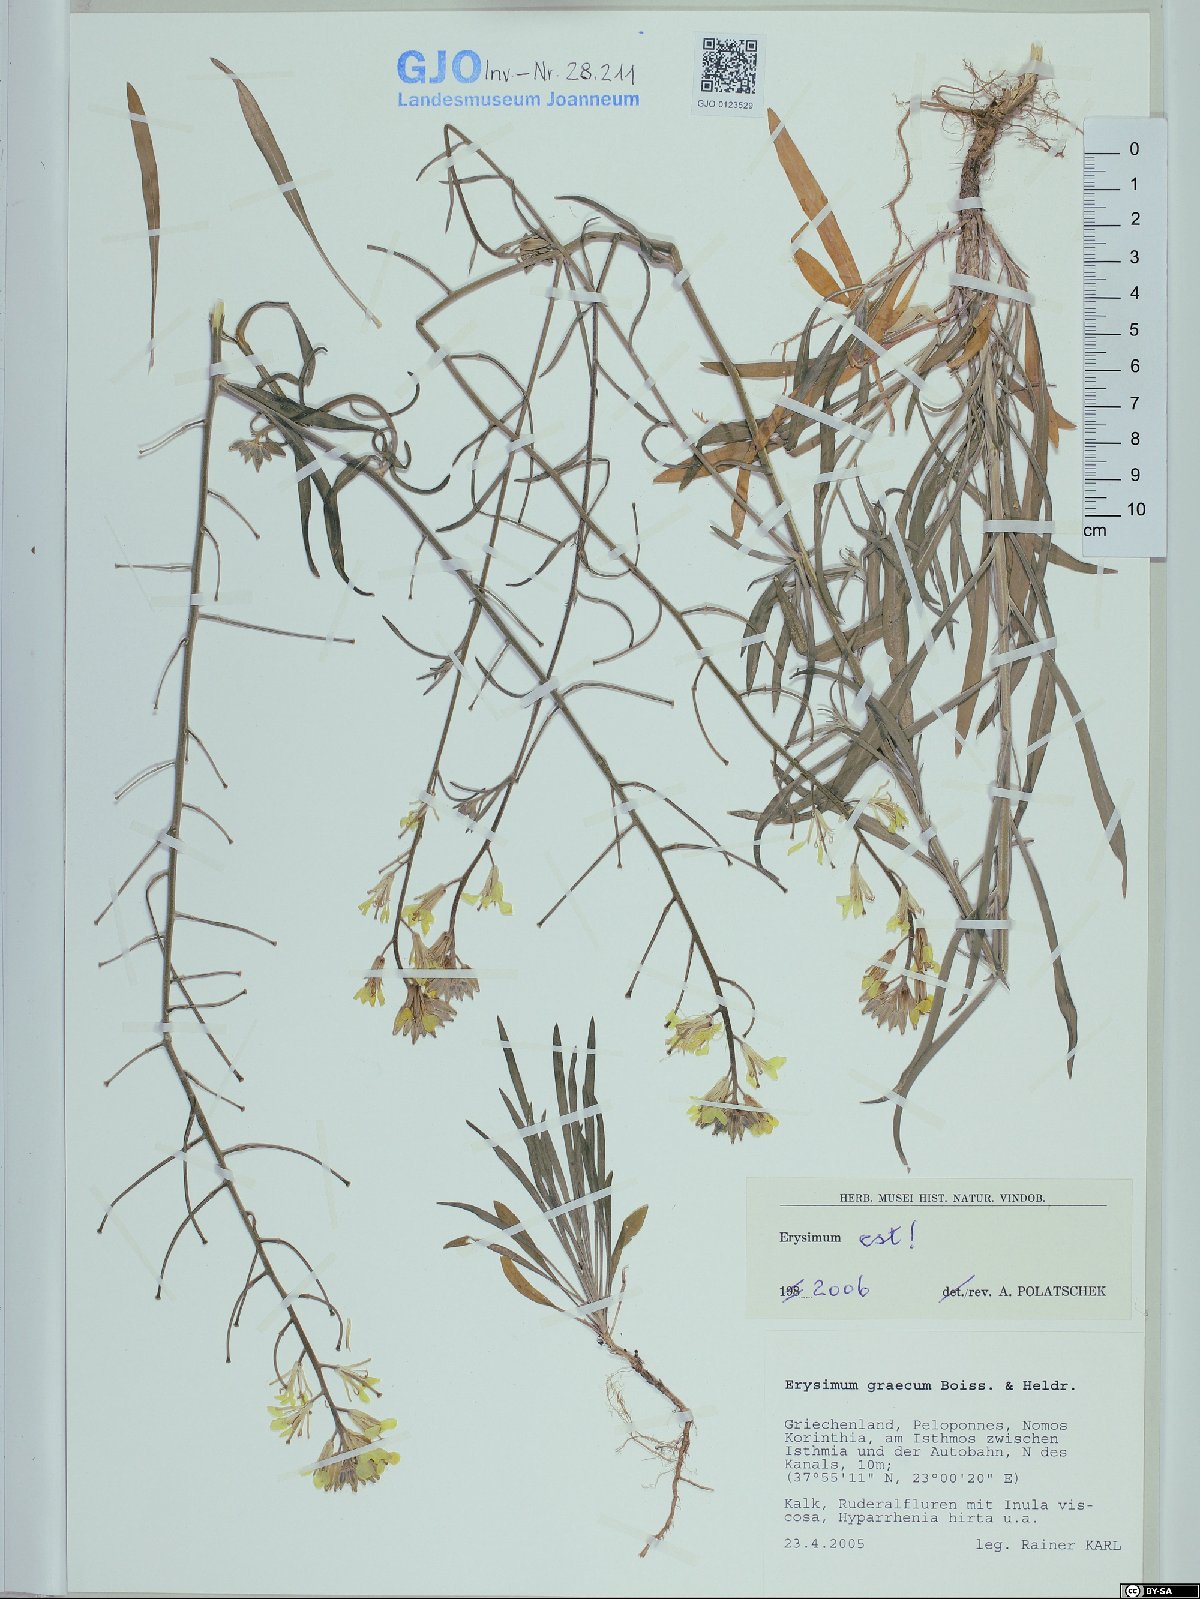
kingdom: Plantae
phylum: Tracheophyta
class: Magnoliopsida
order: Brassicales
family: Brassicaceae
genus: Erysimum
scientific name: Erysimum graecum
